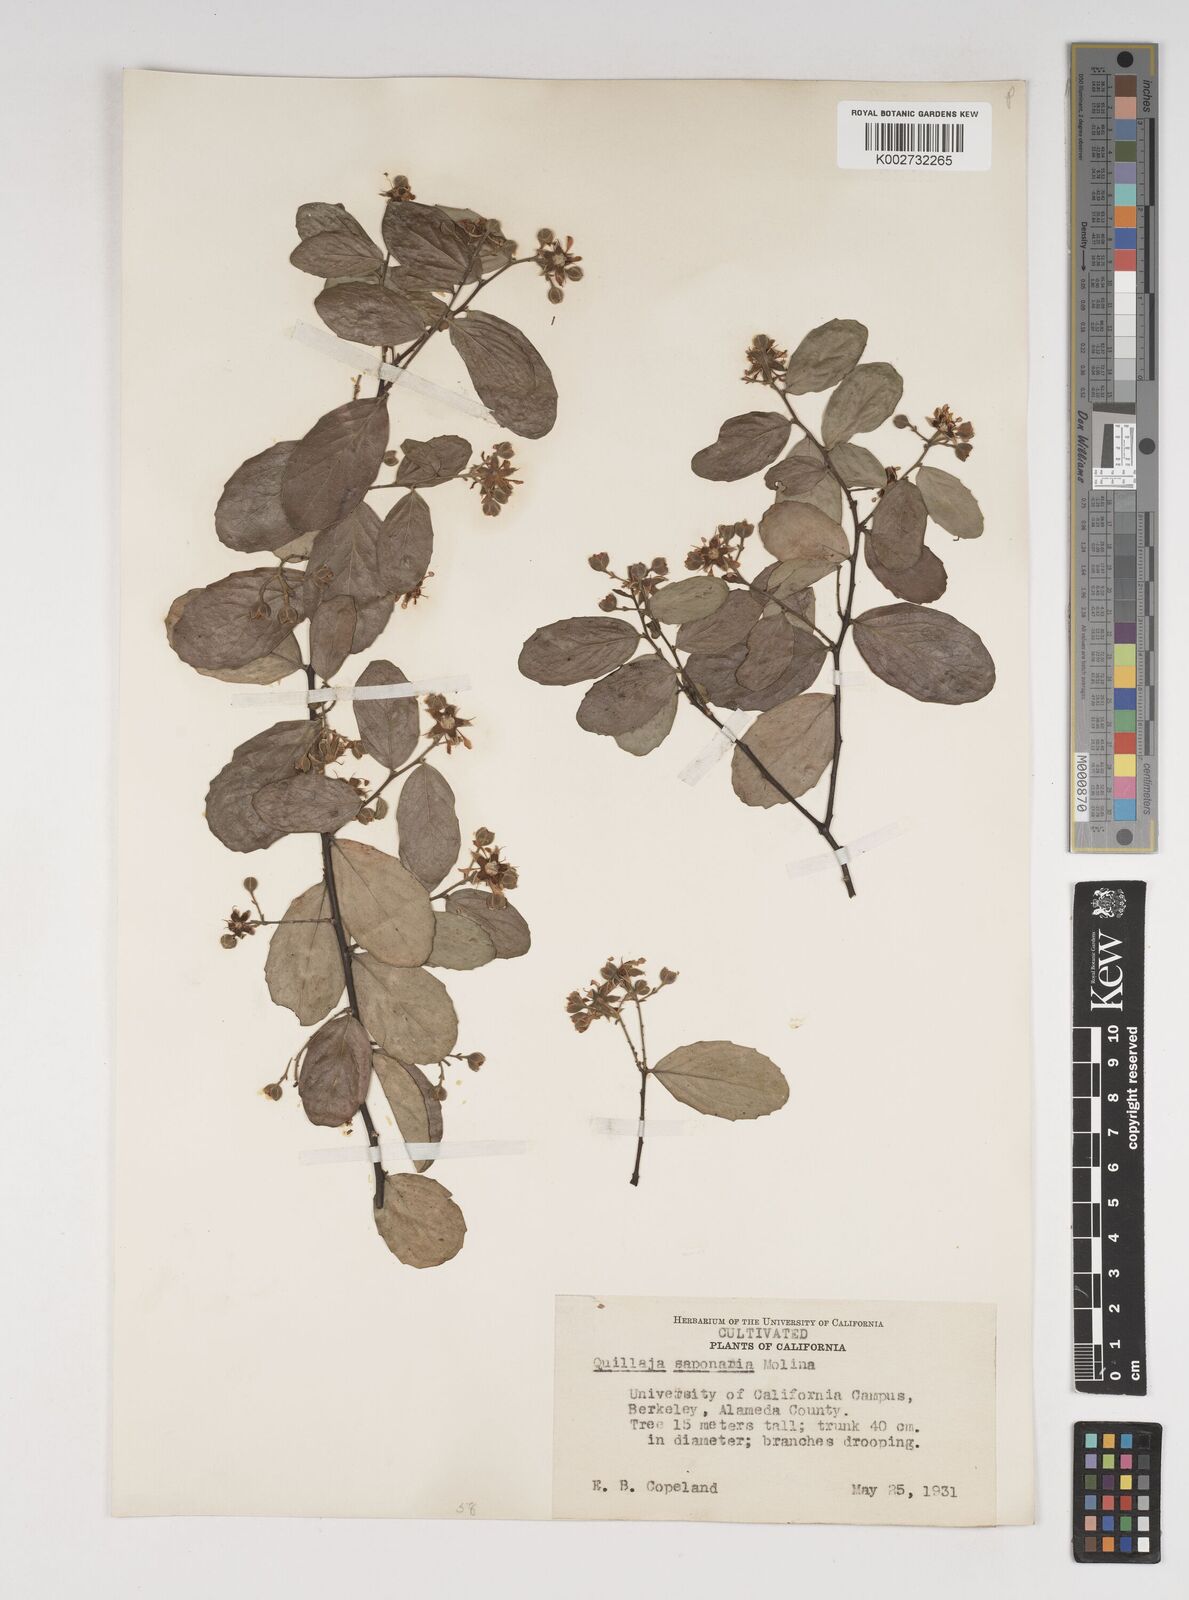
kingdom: Plantae
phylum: Tracheophyta
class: Magnoliopsida
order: Fabales
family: Quillajaceae
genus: Quillaja
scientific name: Quillaja saponaria
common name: Murillo's-bark
